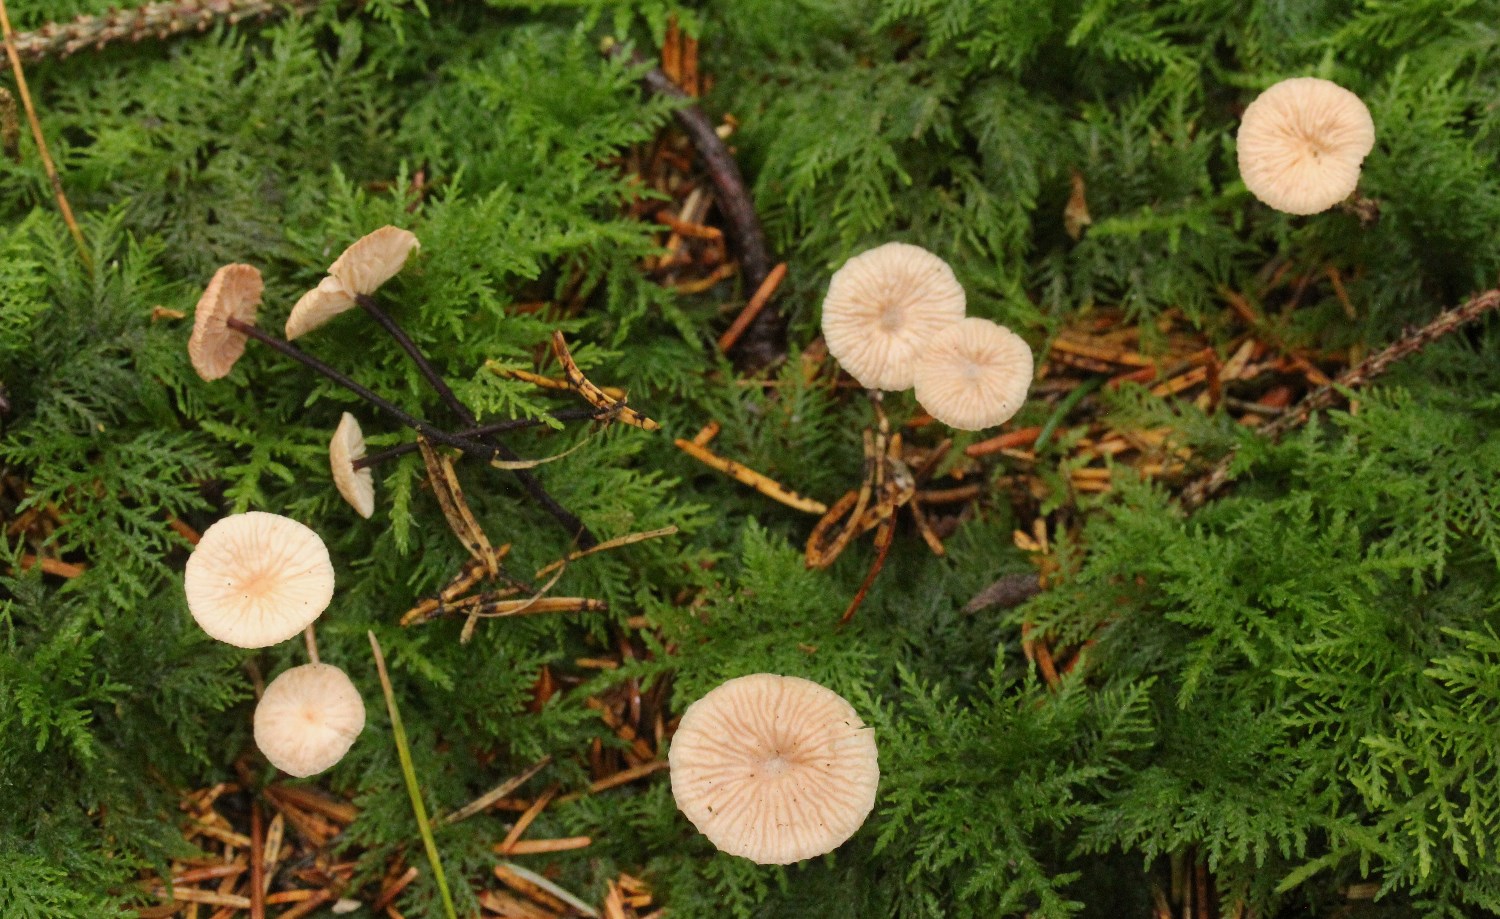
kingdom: Fungi
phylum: Basidiomycota
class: Agaricomycetes
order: Agaricales
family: Omphalotaceae
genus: Paragymnopus
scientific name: Paragymnopus perforans
